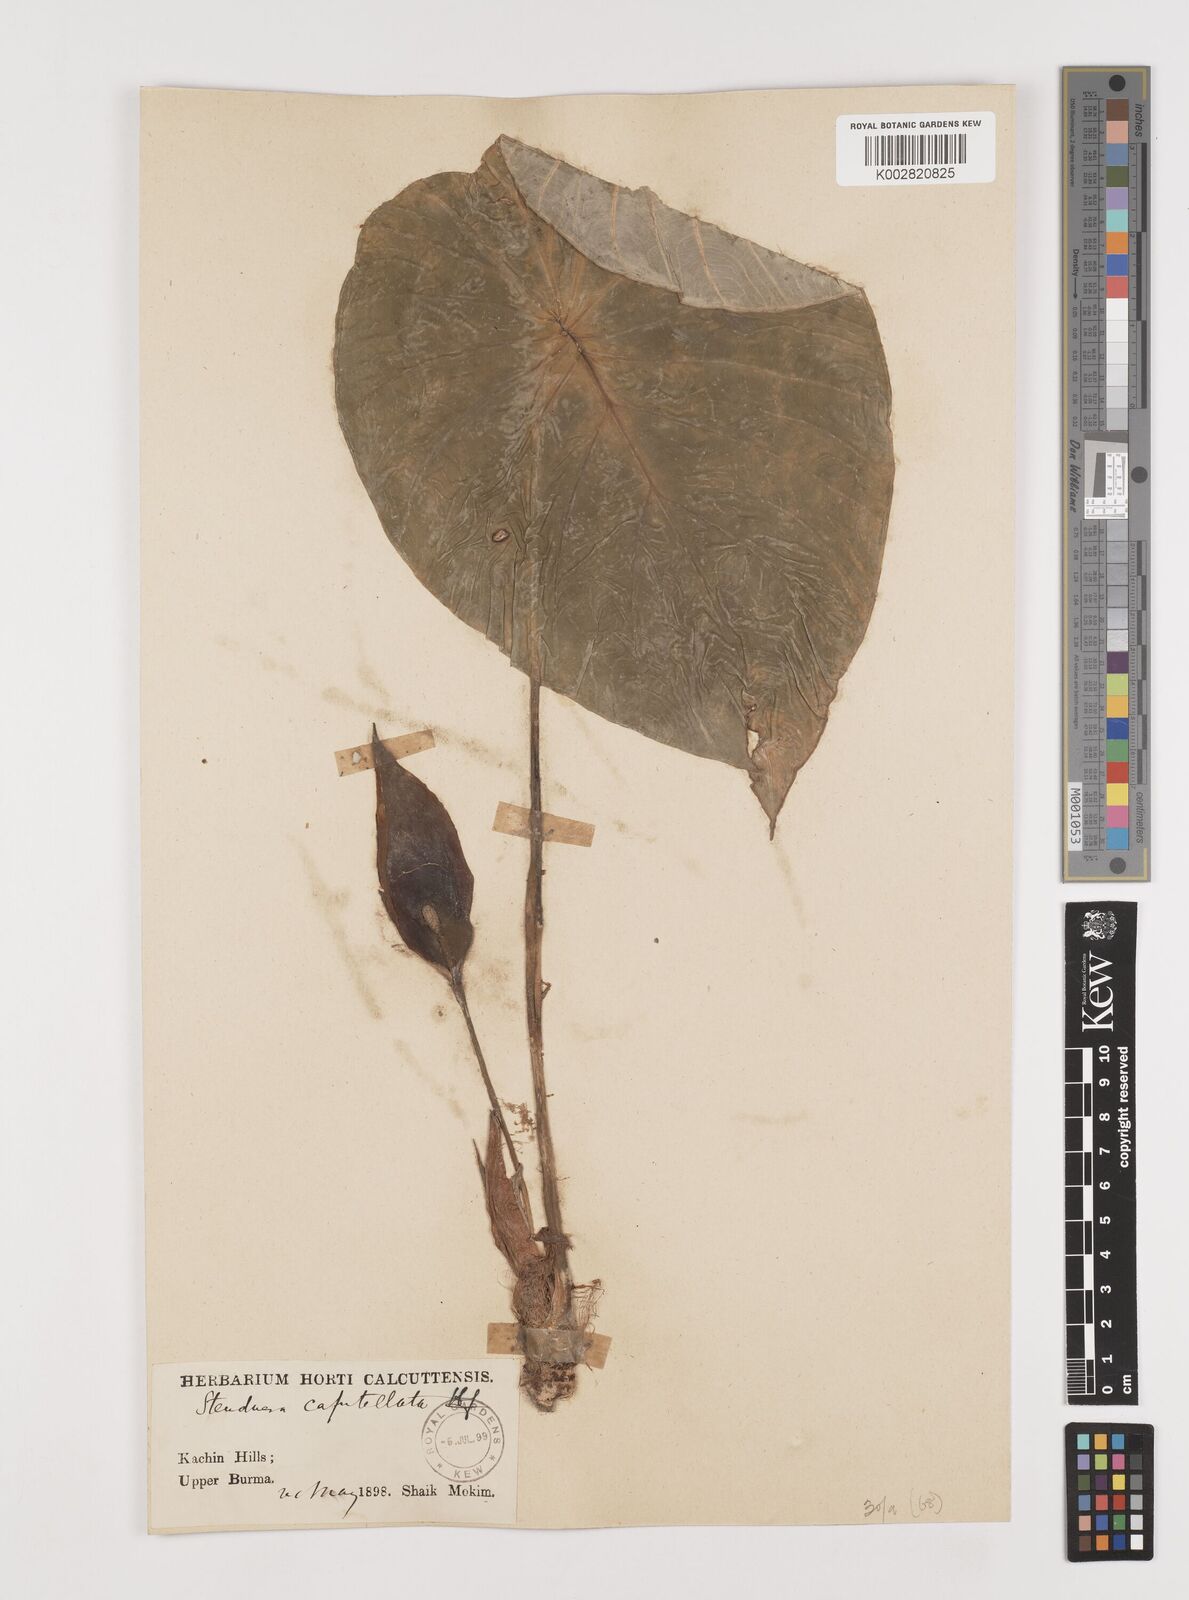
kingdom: Plantae
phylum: Tracheophyta
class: Liliopsida
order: Alismatales
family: Araceae
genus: Steudnera
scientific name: Steudnera capitellata
